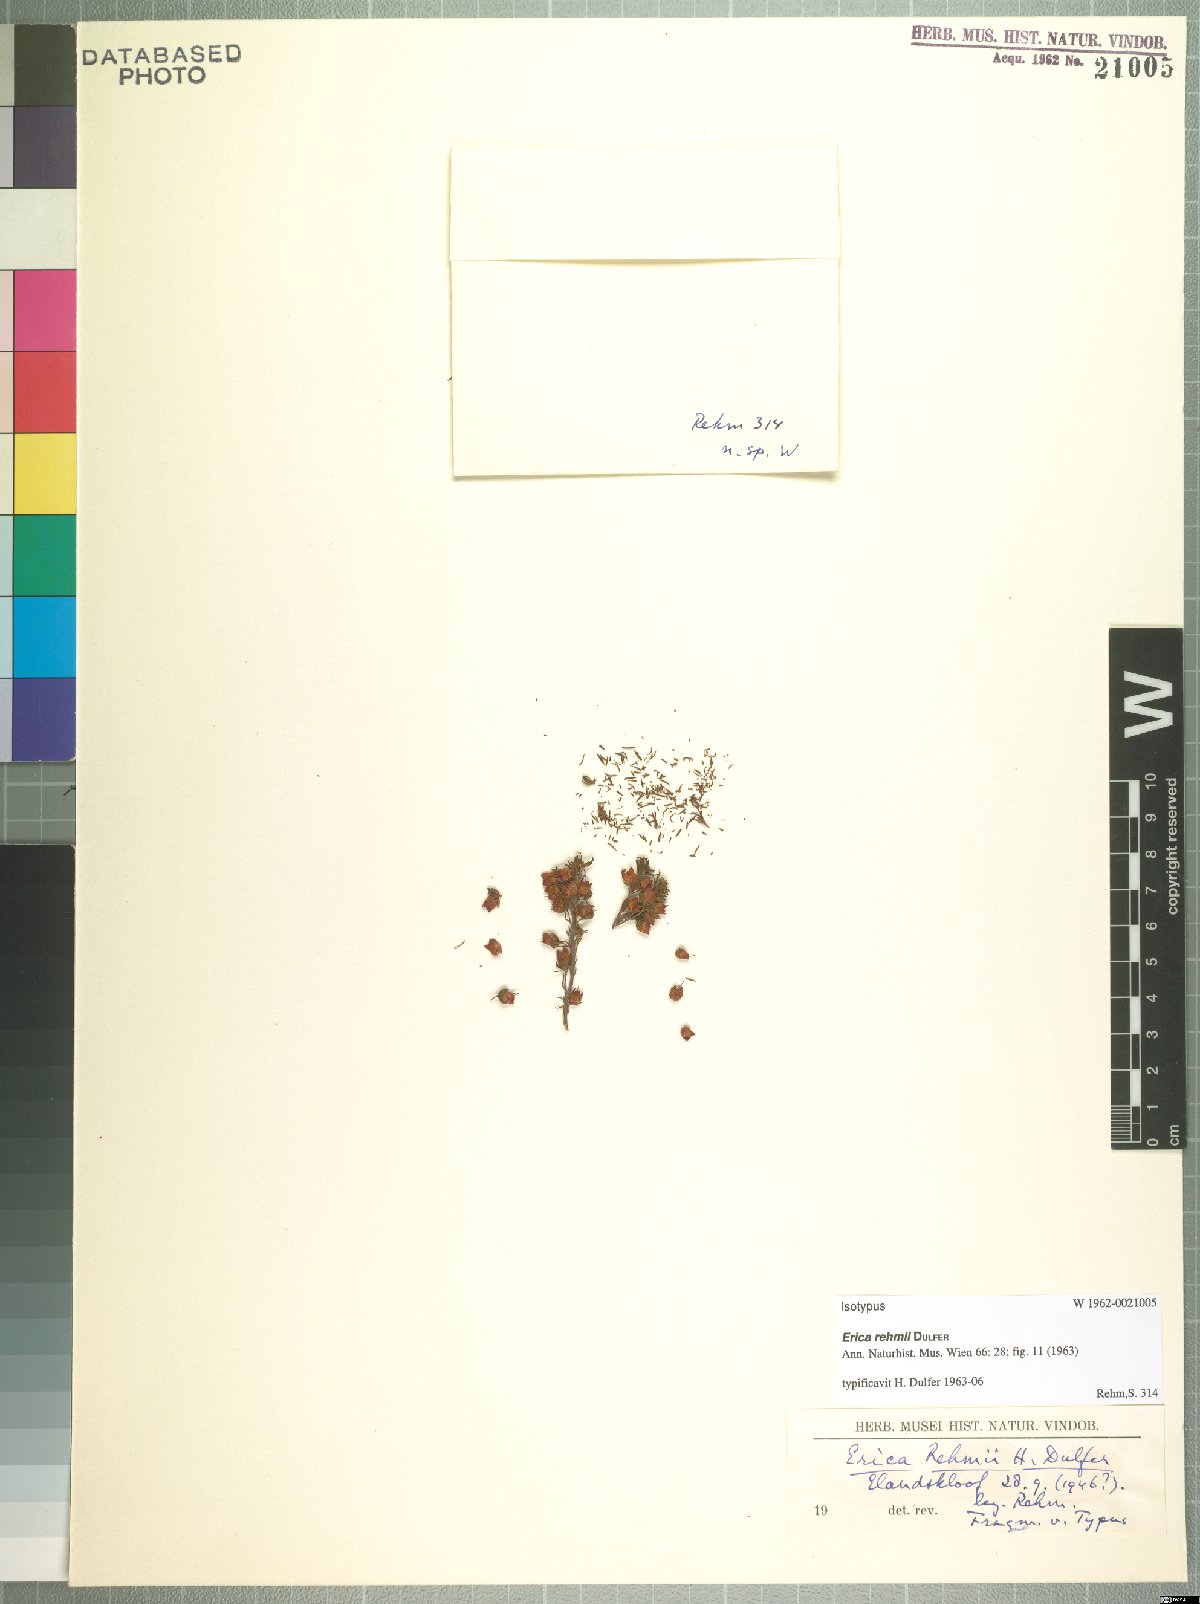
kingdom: Plantae
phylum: Tracheophyta
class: Magnoliopsida
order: Ericales
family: Ericaceae
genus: Erica
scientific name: Erica rehmii
